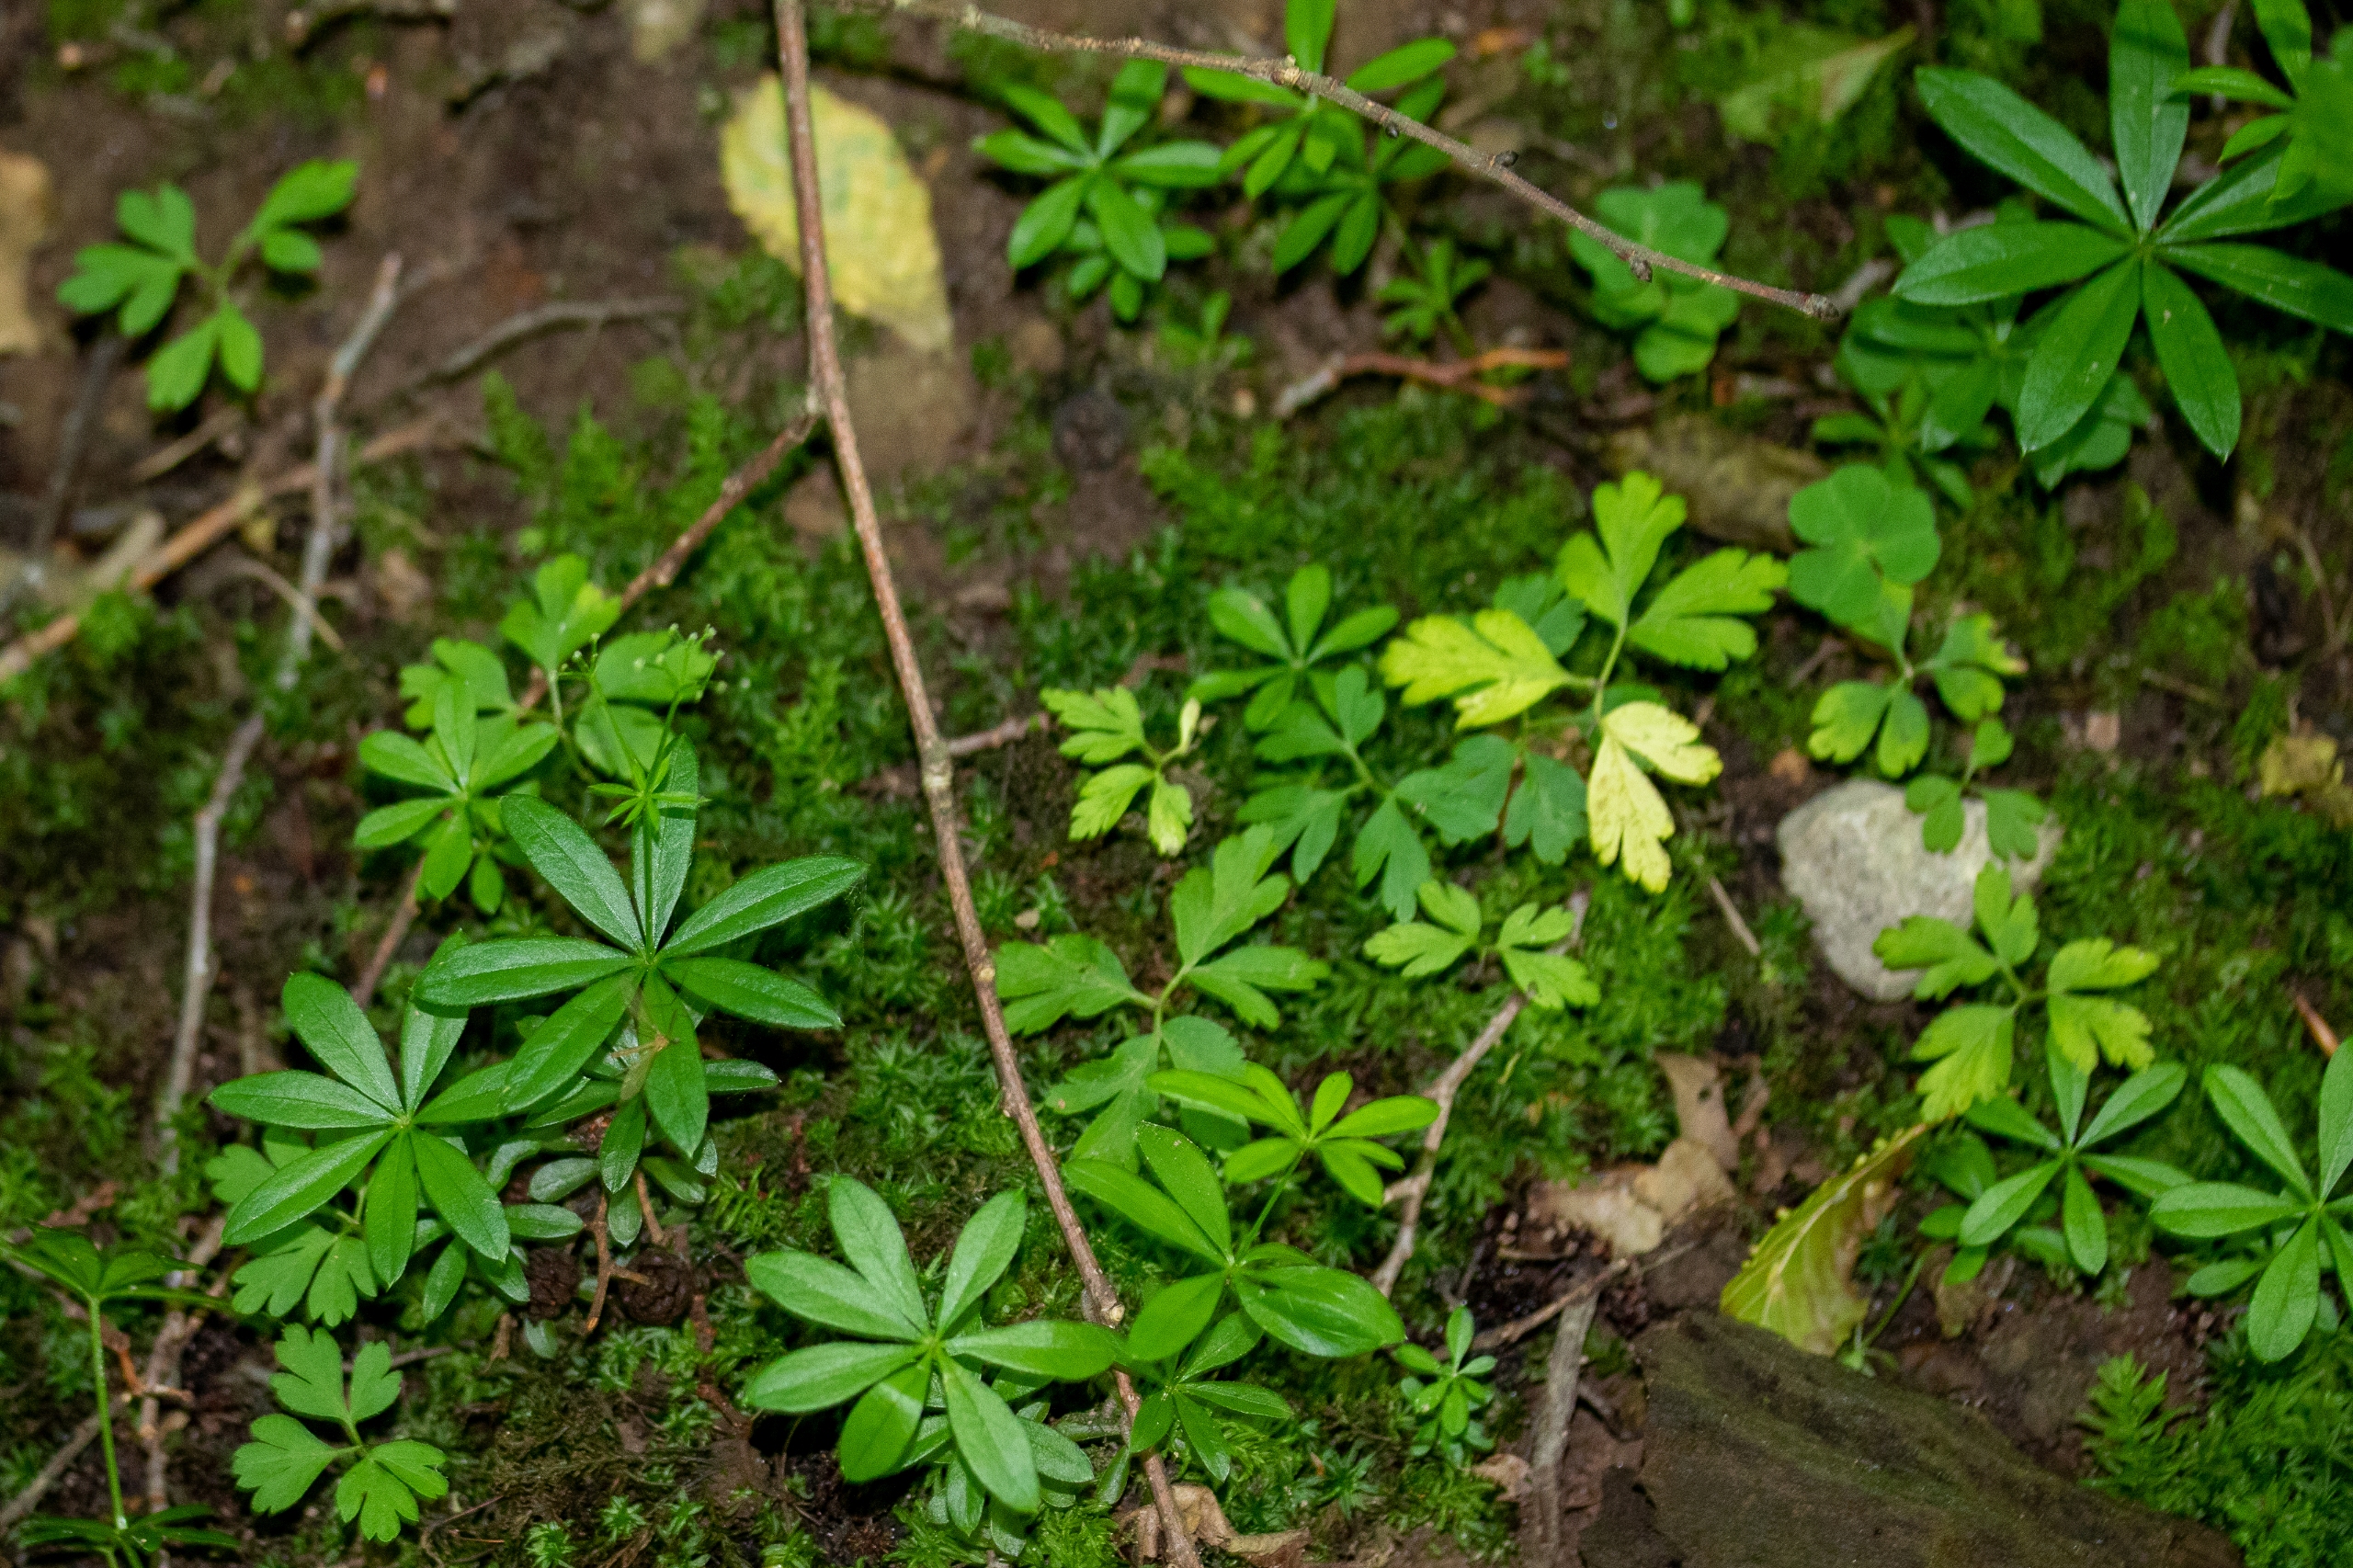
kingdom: Plantae
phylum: Tracheophyta
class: Magnoliopsida
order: Gentianales
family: Rubiaceae
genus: Galium
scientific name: Galium odoratum
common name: Skovmærke
